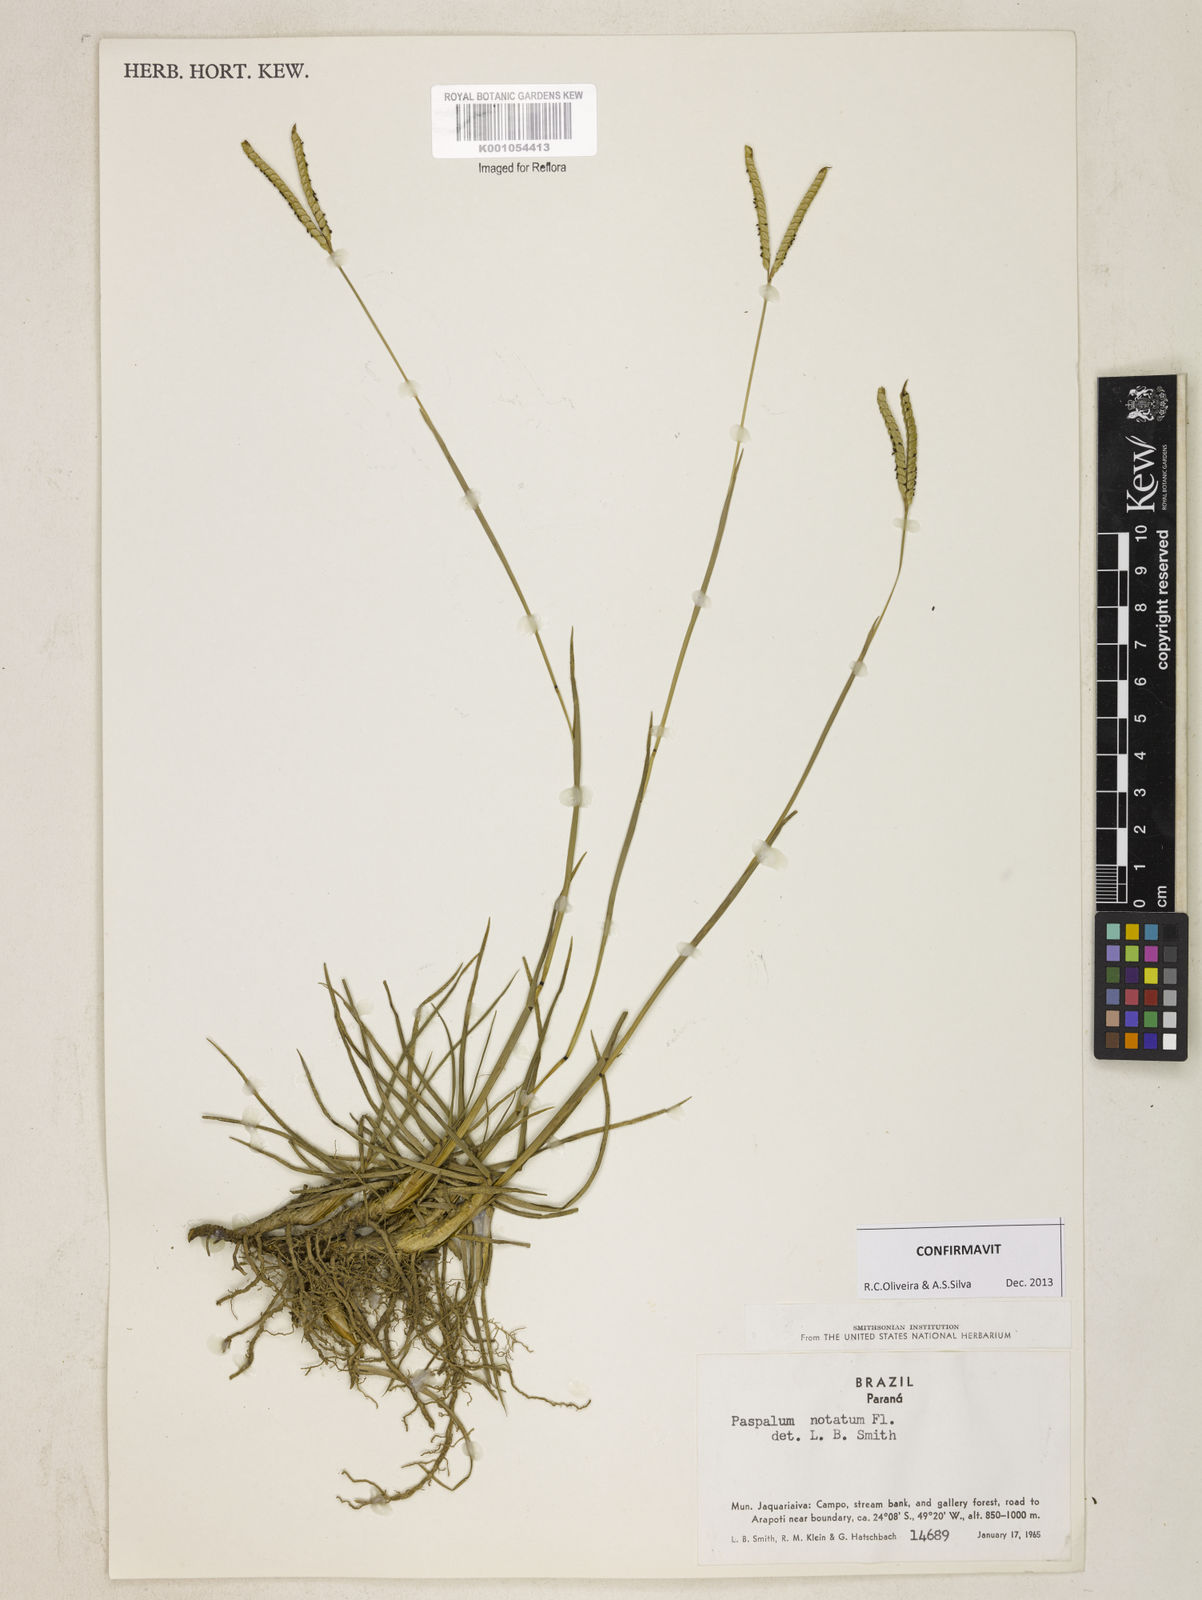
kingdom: Plantae
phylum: Tracheophyta
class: Liliopsida
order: Poales
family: Poaceae
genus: Paspalum
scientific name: Paspalum
